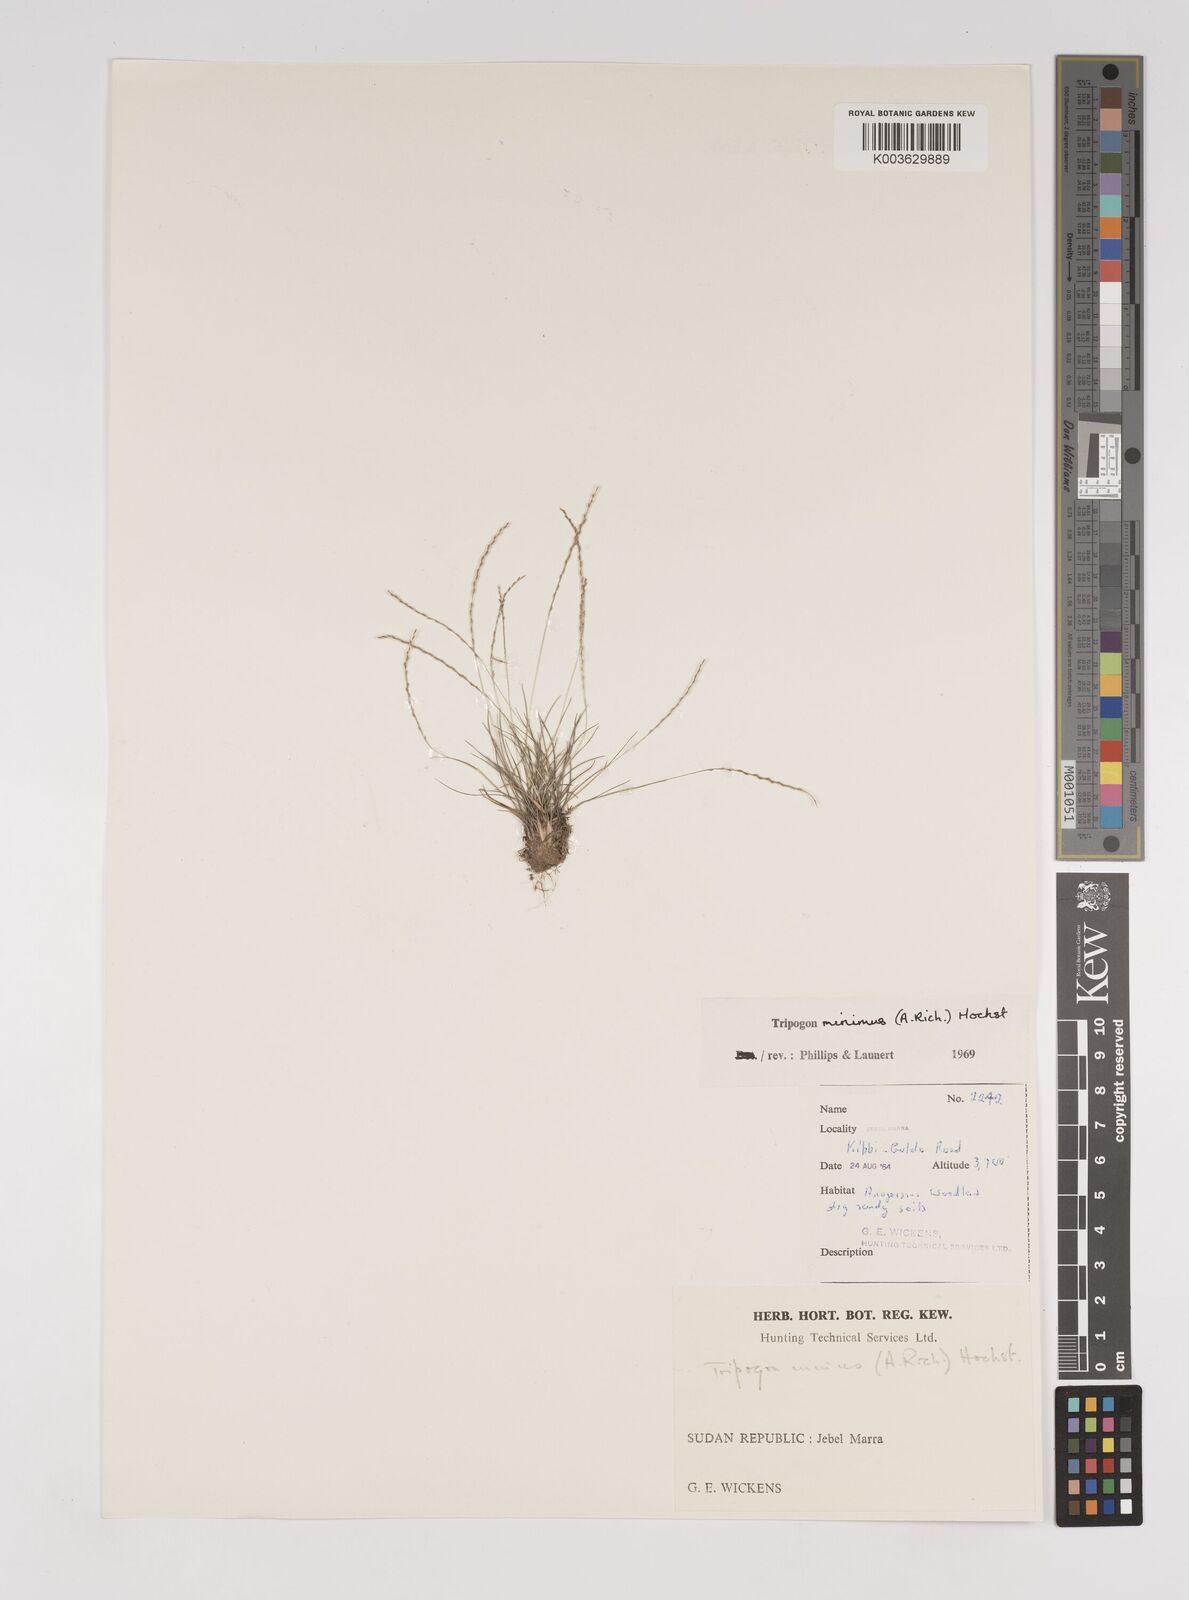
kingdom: Plantae
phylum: Tracheophyta
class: Liliopsida
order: Poales
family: Poaceae
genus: Tripogonella
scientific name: Tripogonella minima
